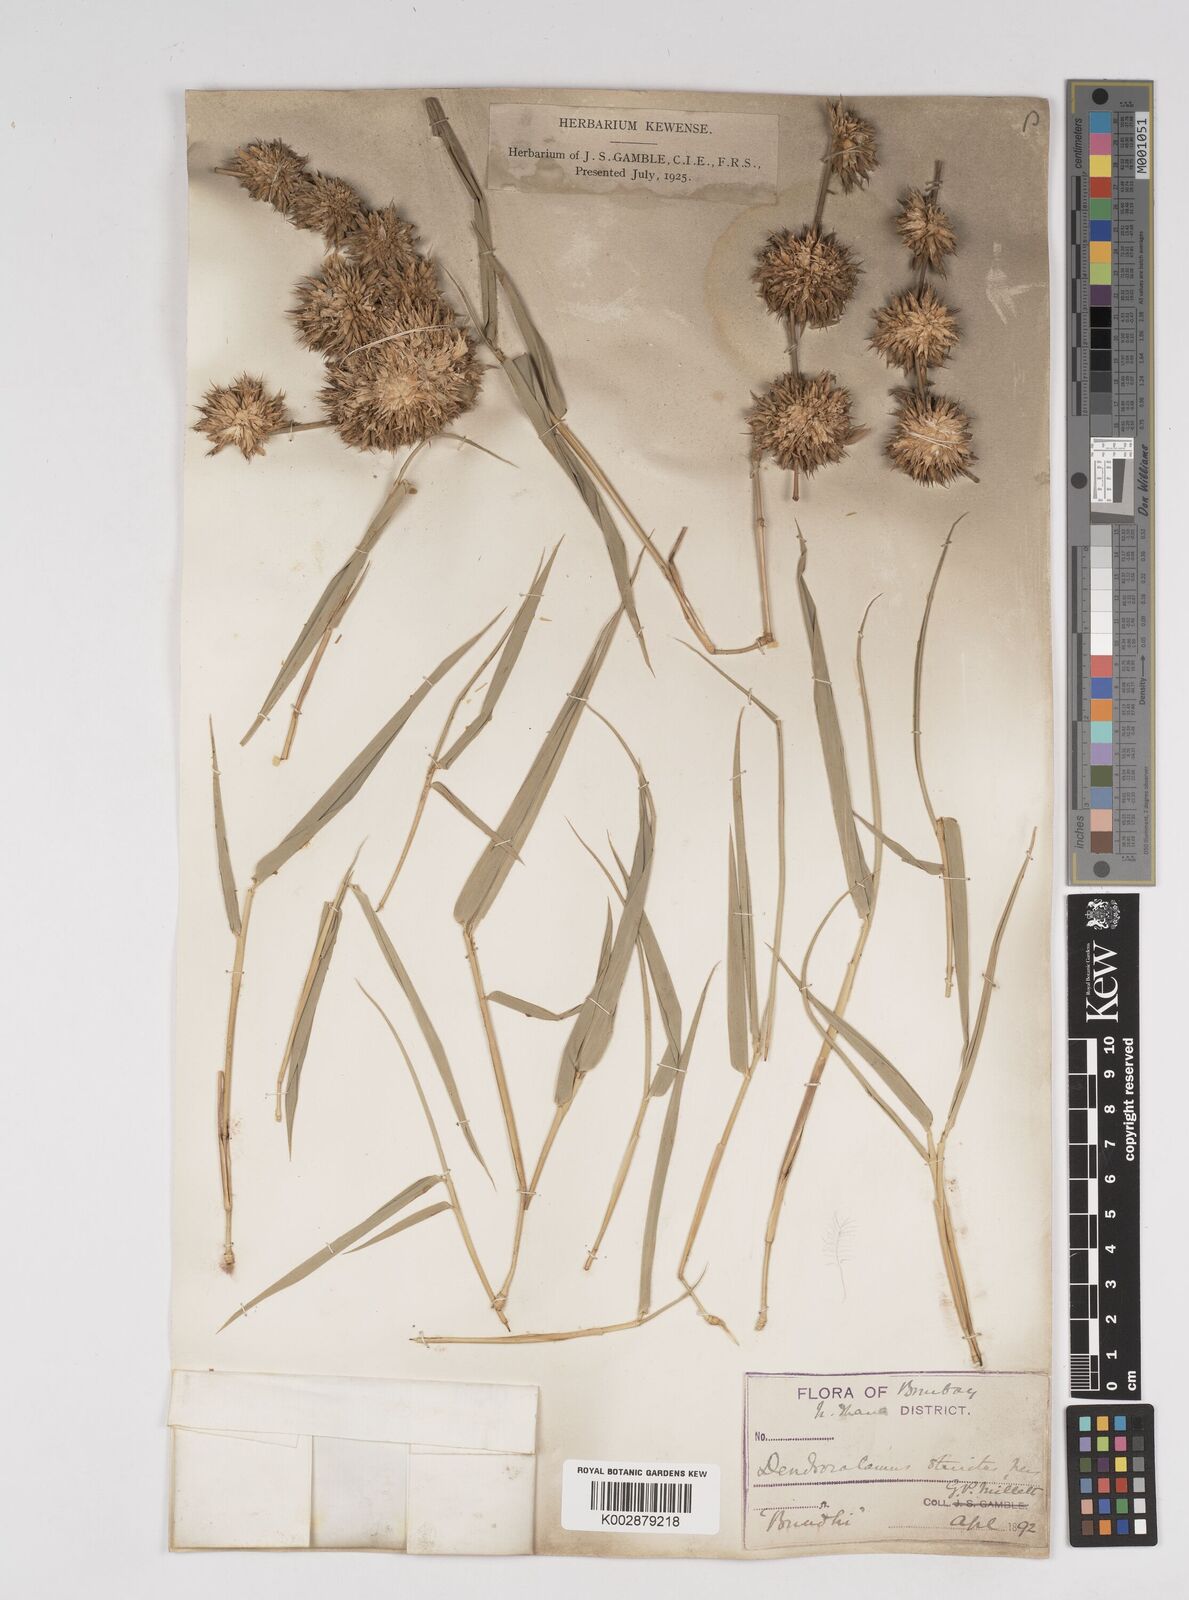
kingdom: Plantae
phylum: Tracheophyta
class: Liliopsida
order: Poales
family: Poaceae
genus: Dendrocalamus
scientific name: Dendrocalamus strictus
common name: Male bamboo
